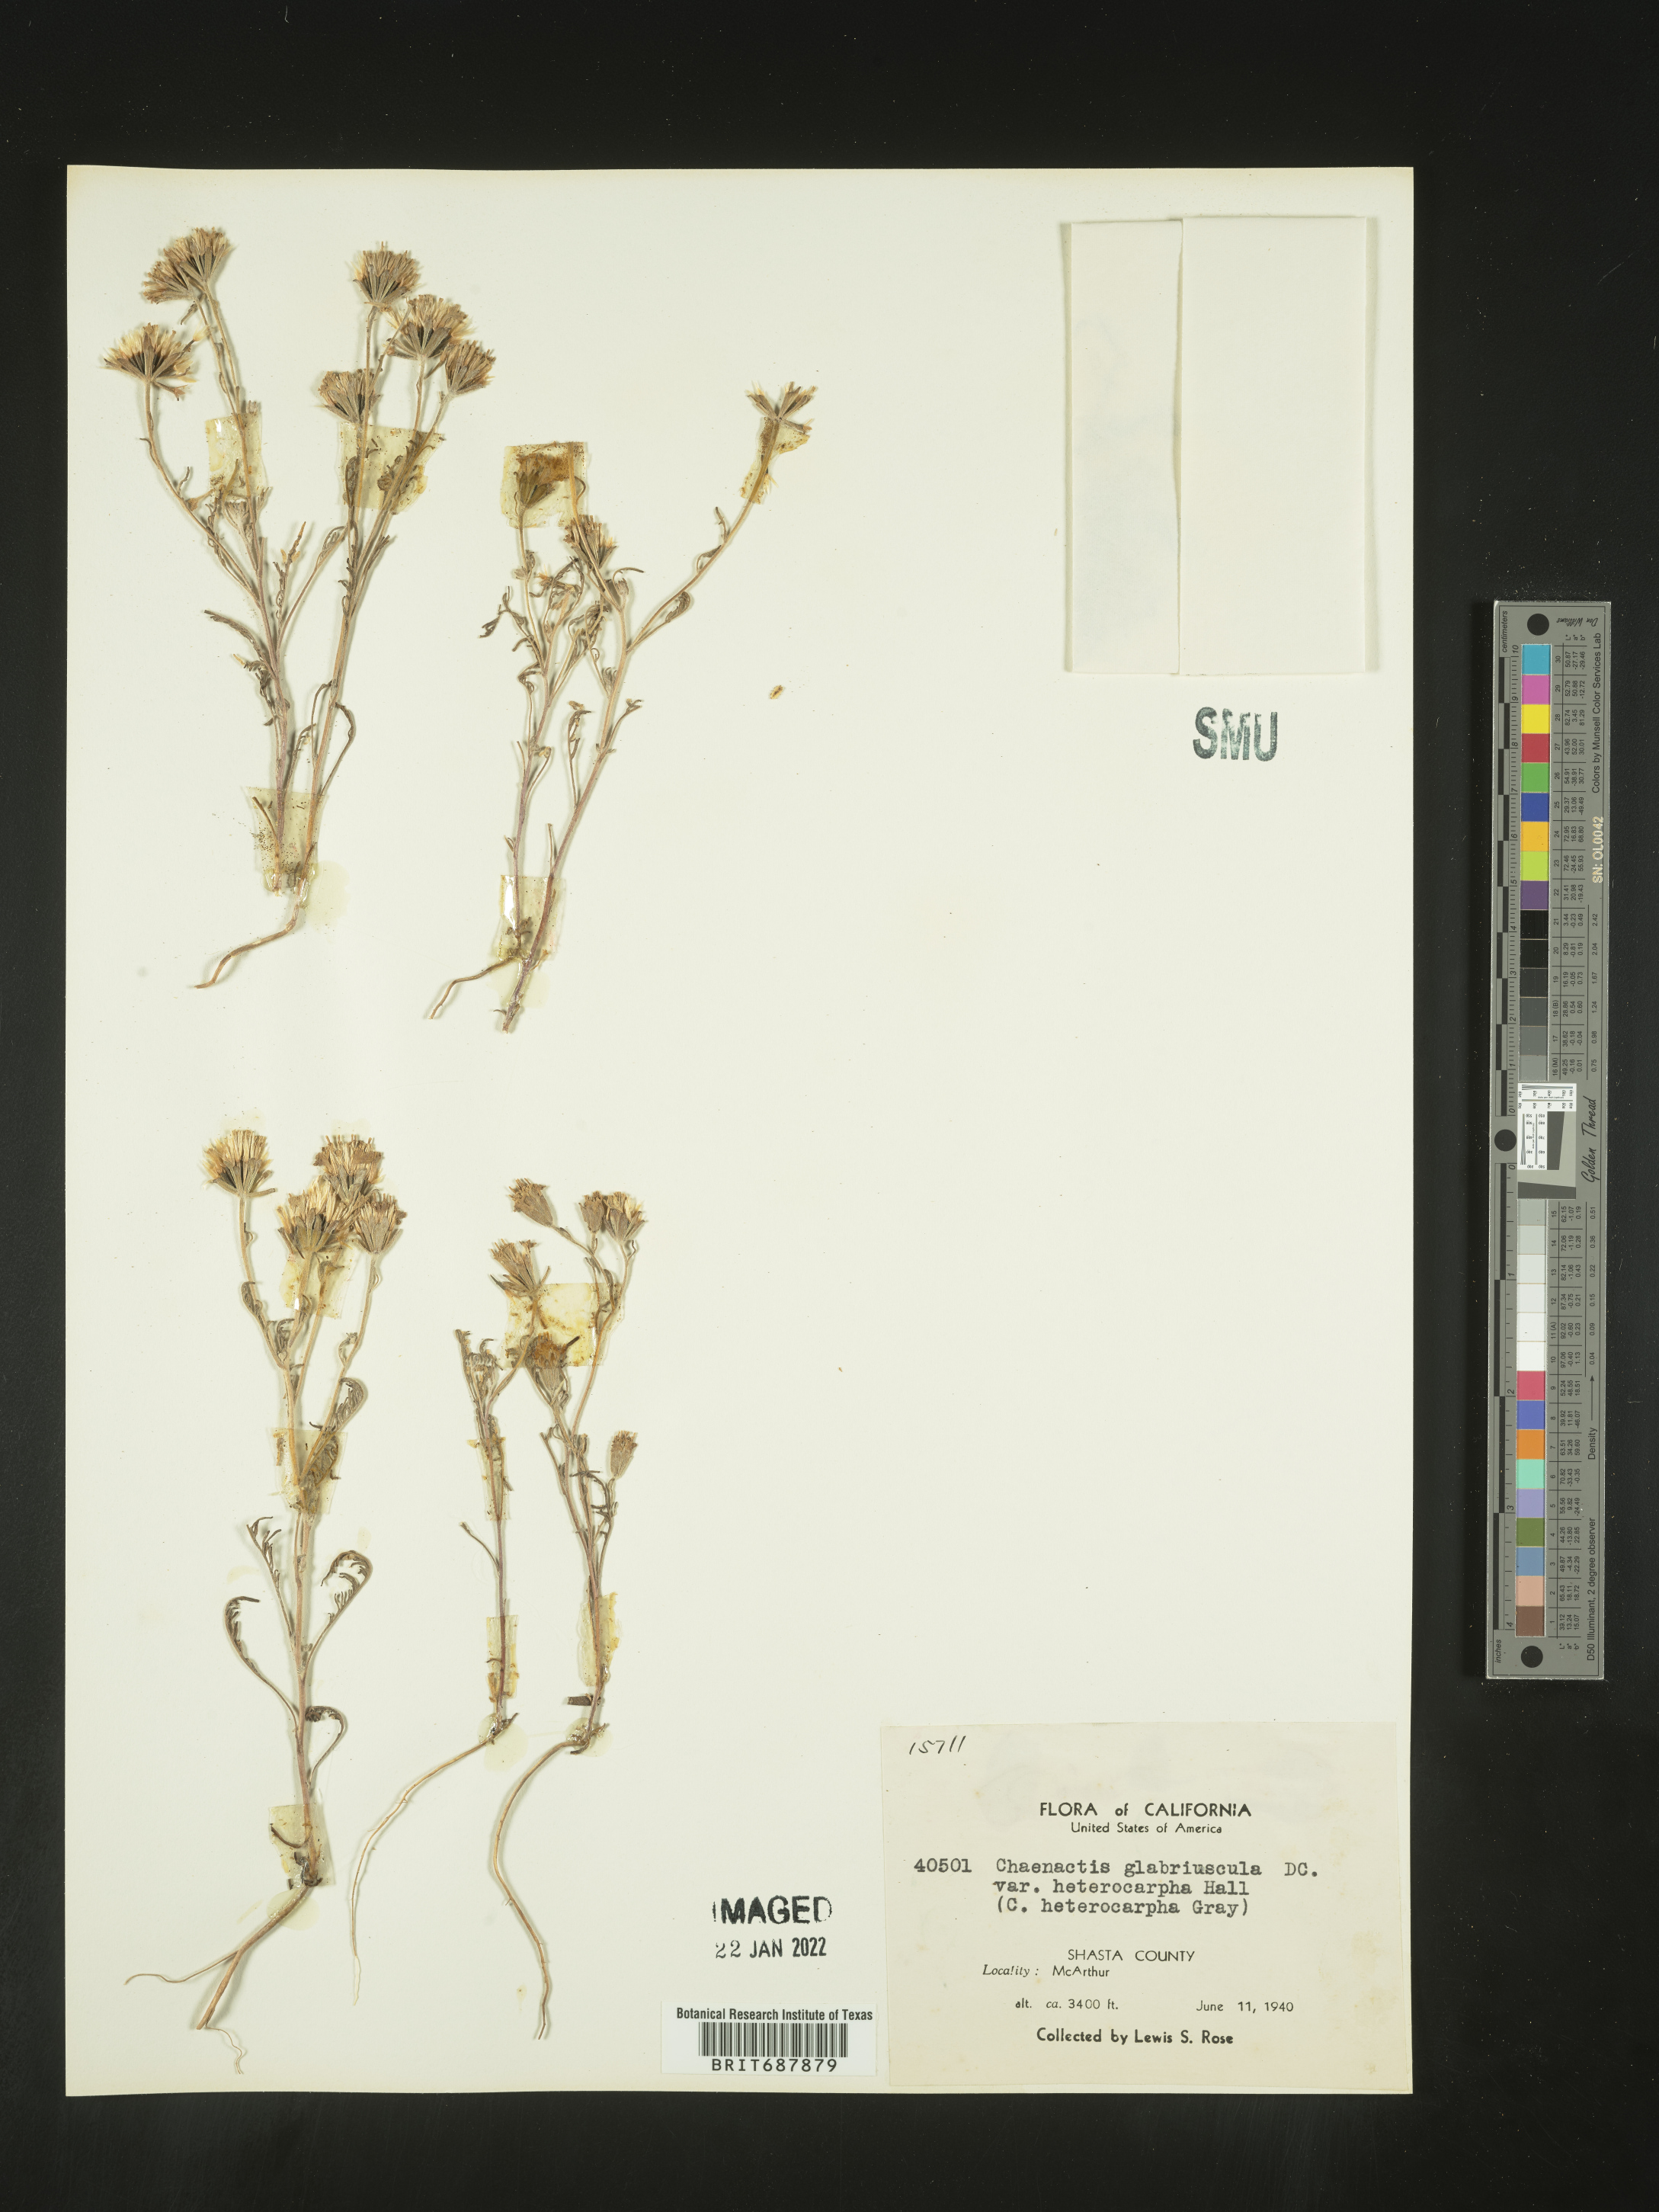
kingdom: Plantae
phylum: Tracheophyta
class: Magnoliopsida
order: Asterales
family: Asteraceae
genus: Chaenactis
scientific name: Chaenactis glabriuscula
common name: Yellow pincushion
